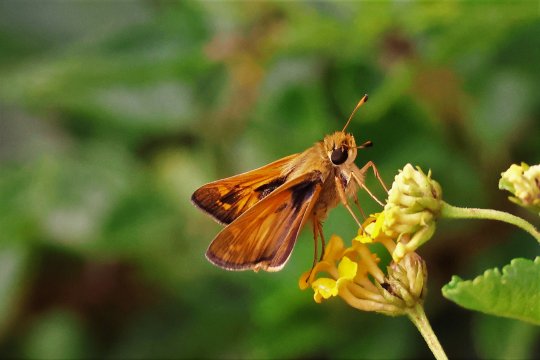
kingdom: Animalia
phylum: Arthropoda
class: Insecta
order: Lepidoptera
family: Hesperiidae
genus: Atalopedes
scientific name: Atalopedes campestris
